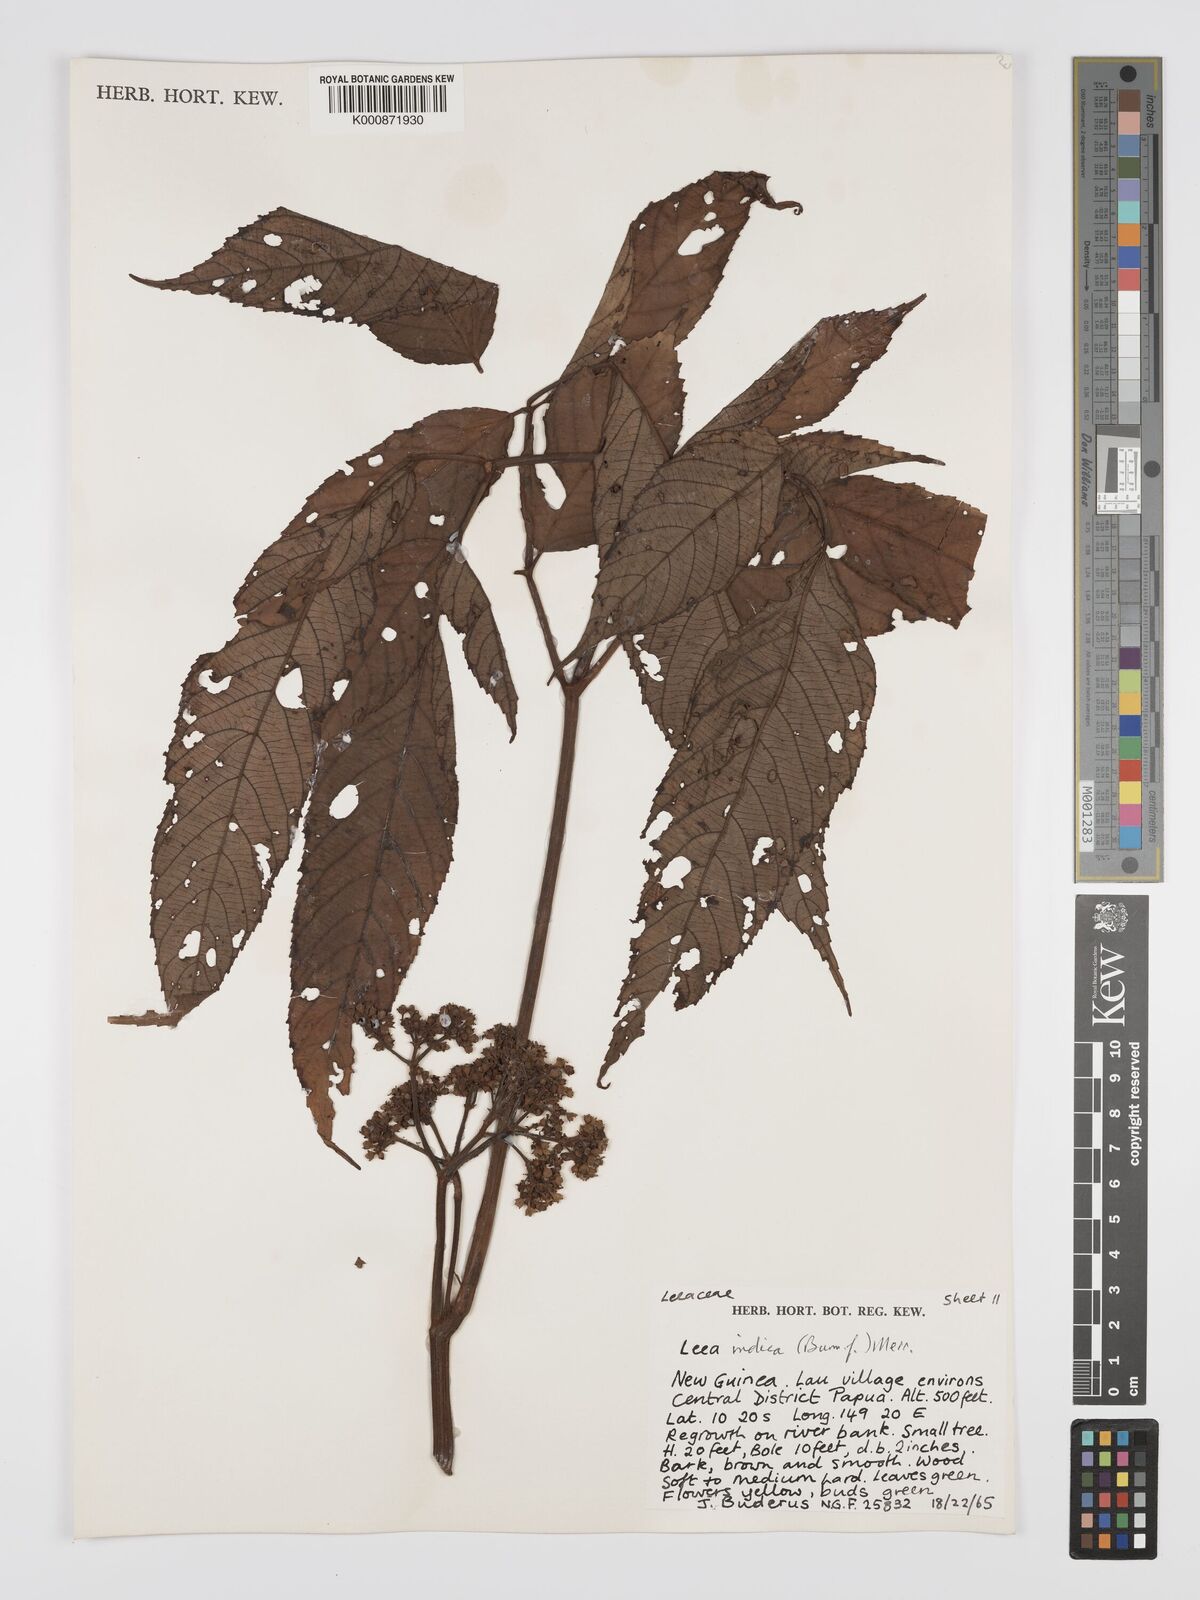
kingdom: Plantae
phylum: Tracheophyta
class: Magnoliopsida
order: Vitales
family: Vitaceae
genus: Leea
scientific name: Leea indica
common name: Bandicoot-berry
